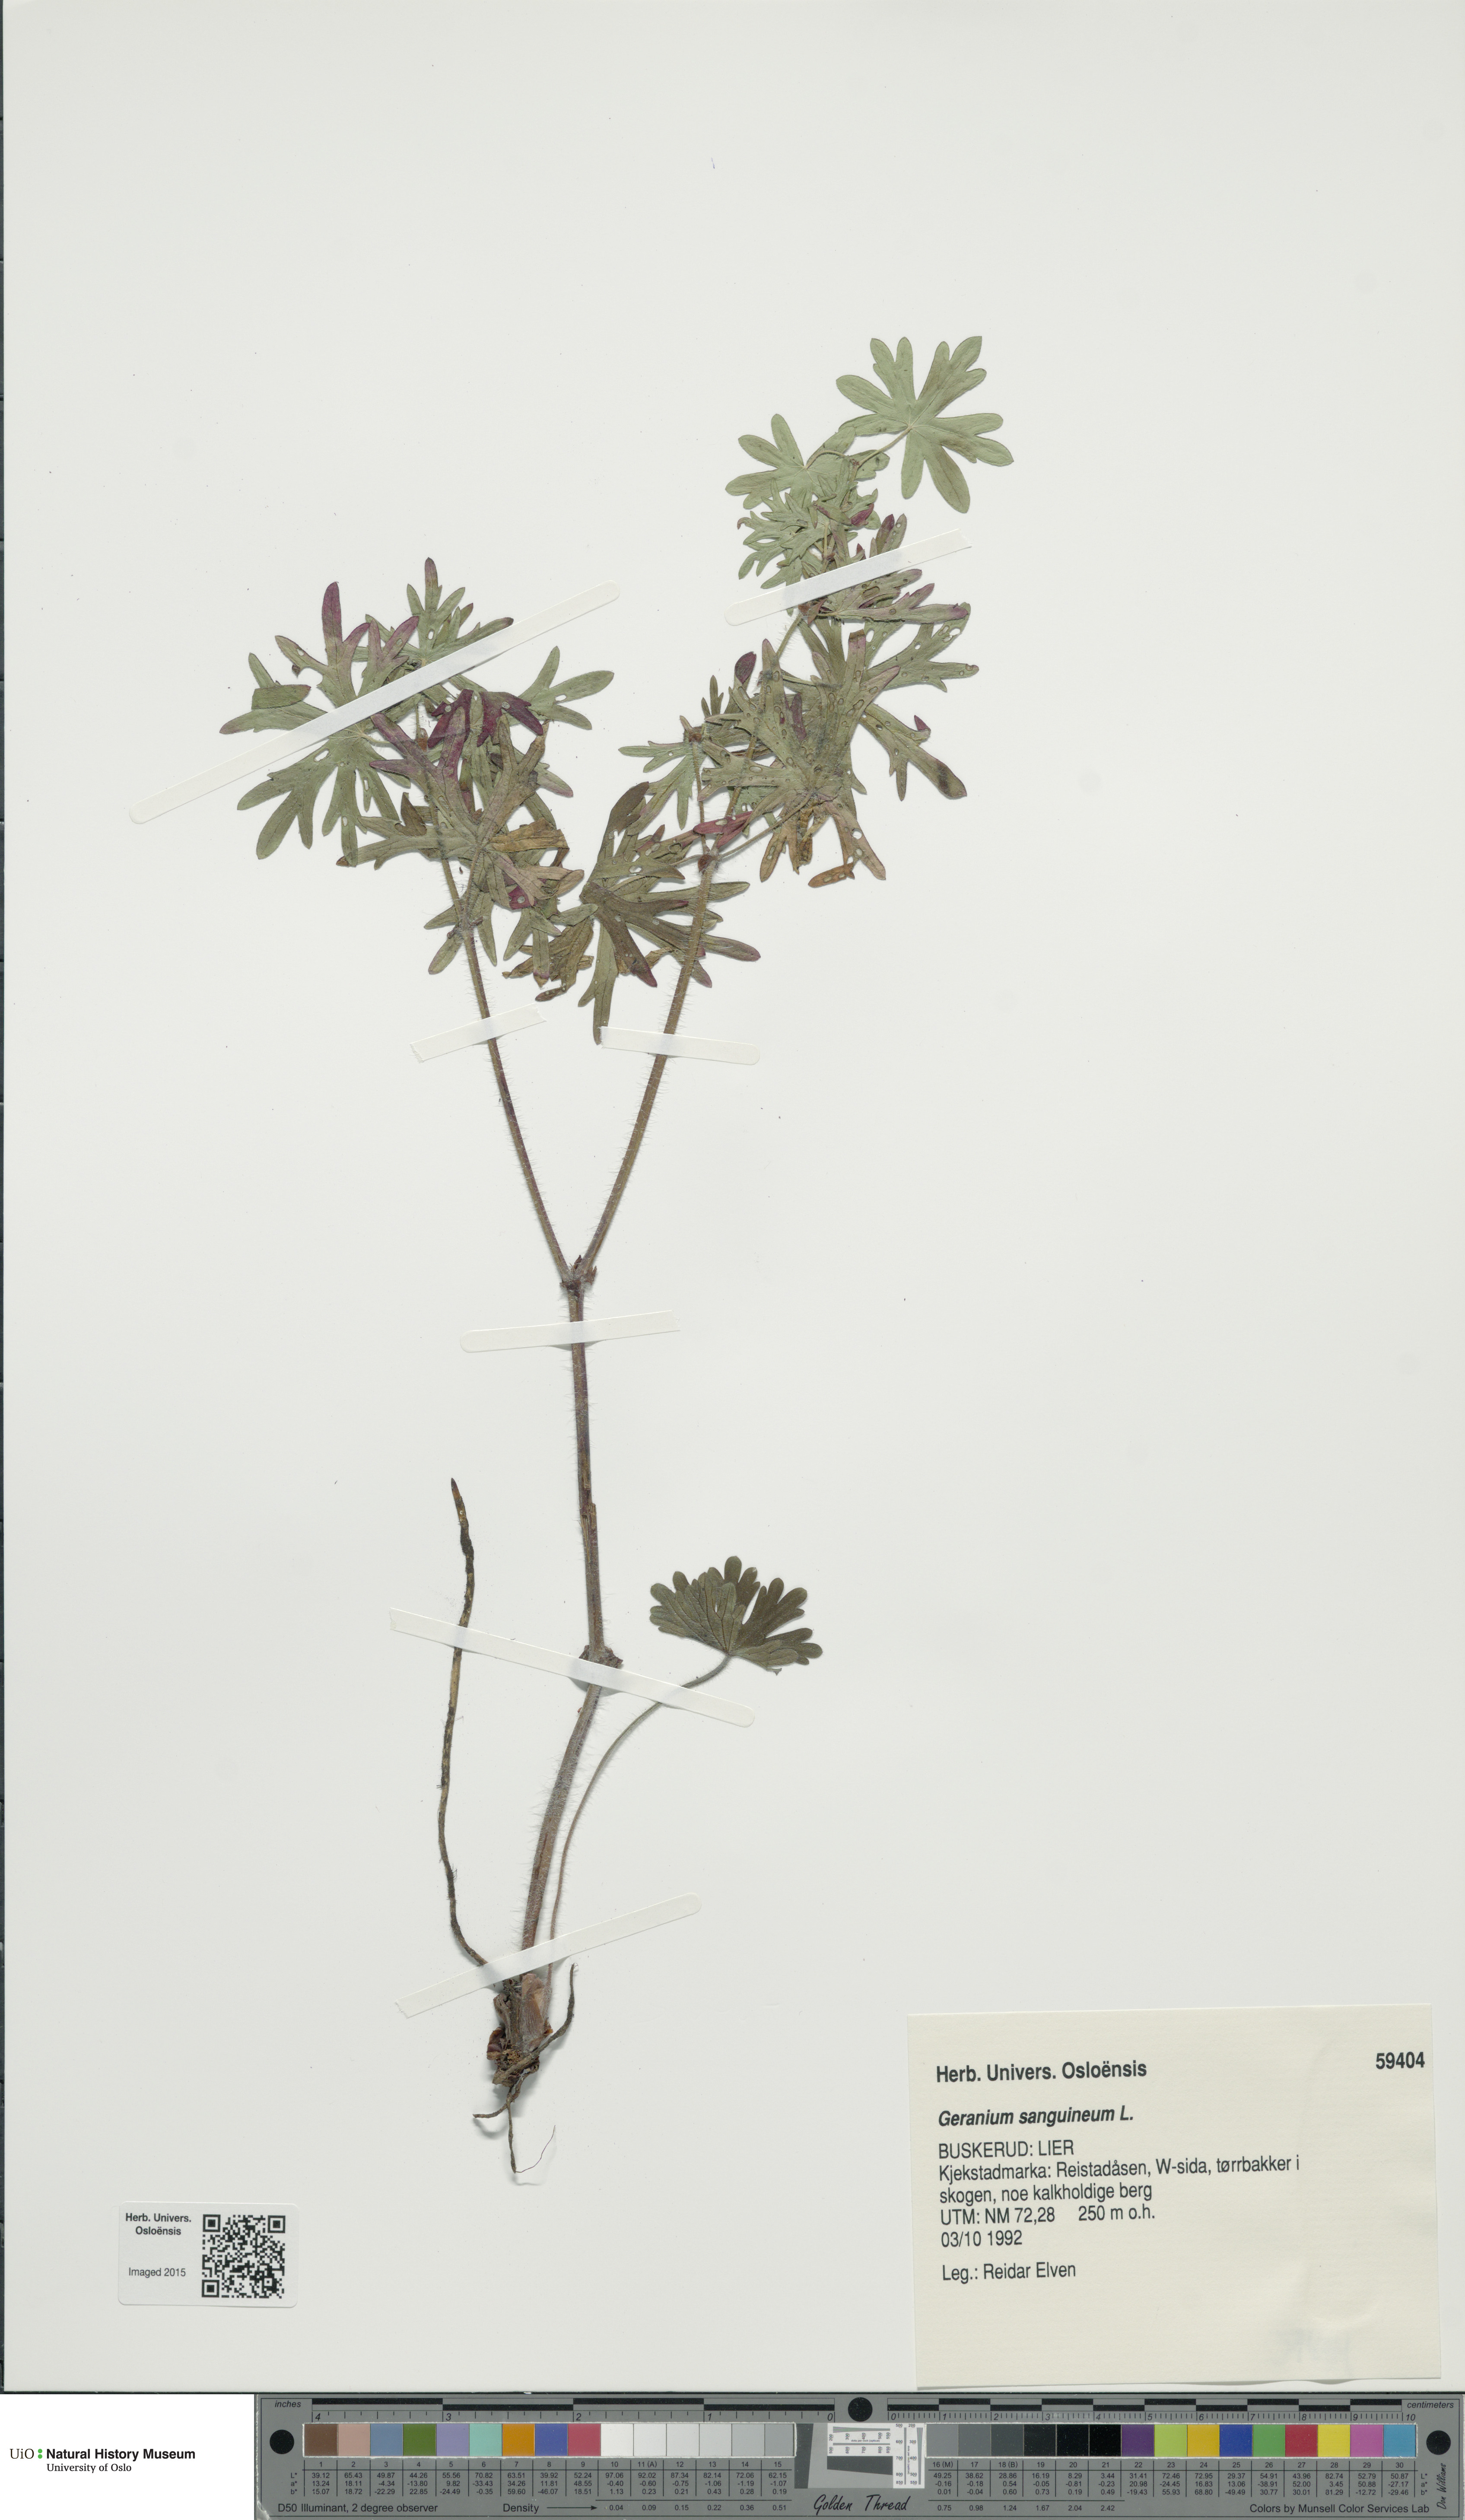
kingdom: Plantae
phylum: Tracheophyta
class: Magnoliopsida
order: Geraniales
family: Geraniaceae
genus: Geranium
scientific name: Geranium sanguineum
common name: Bloody crane's-bill
